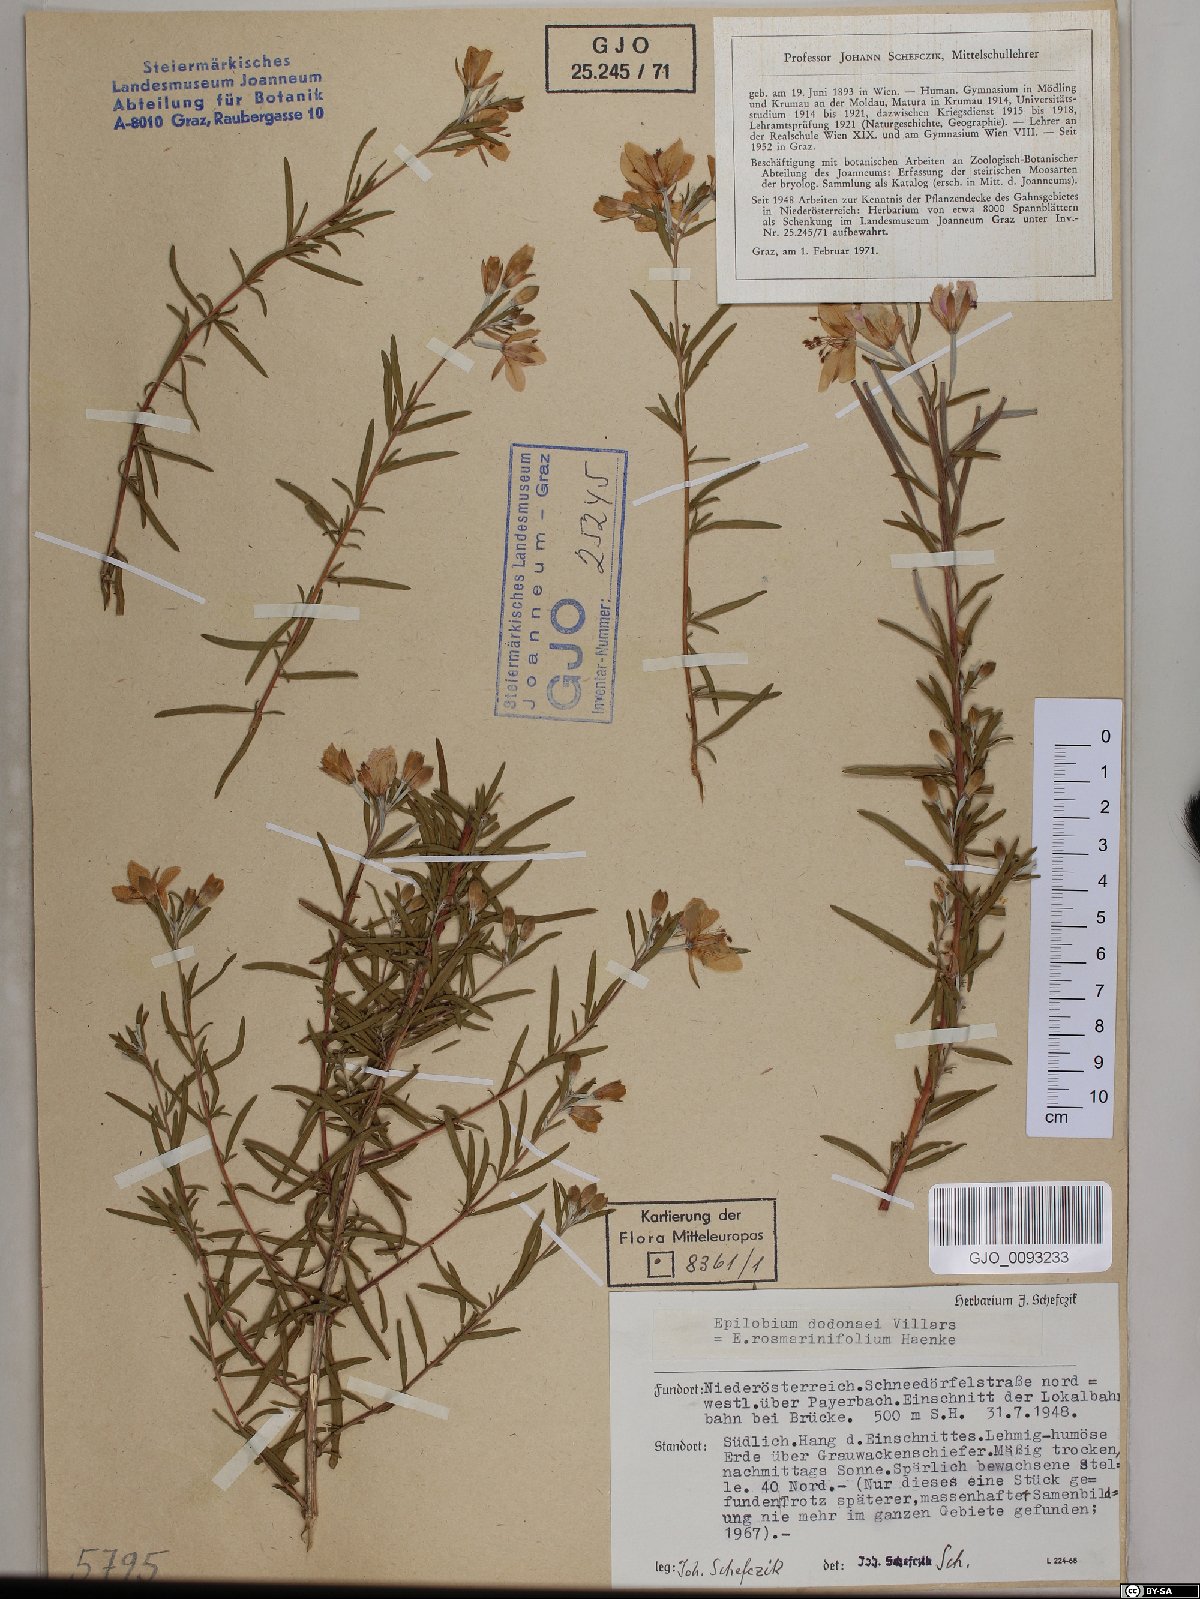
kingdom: Plantae
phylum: Tracheophyta
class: Magnoliopsida
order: Myrtales
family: Onagraceae
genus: Chamaenerion
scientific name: Chamaenerion dodonaei
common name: Rosemary-leaved willowherb
